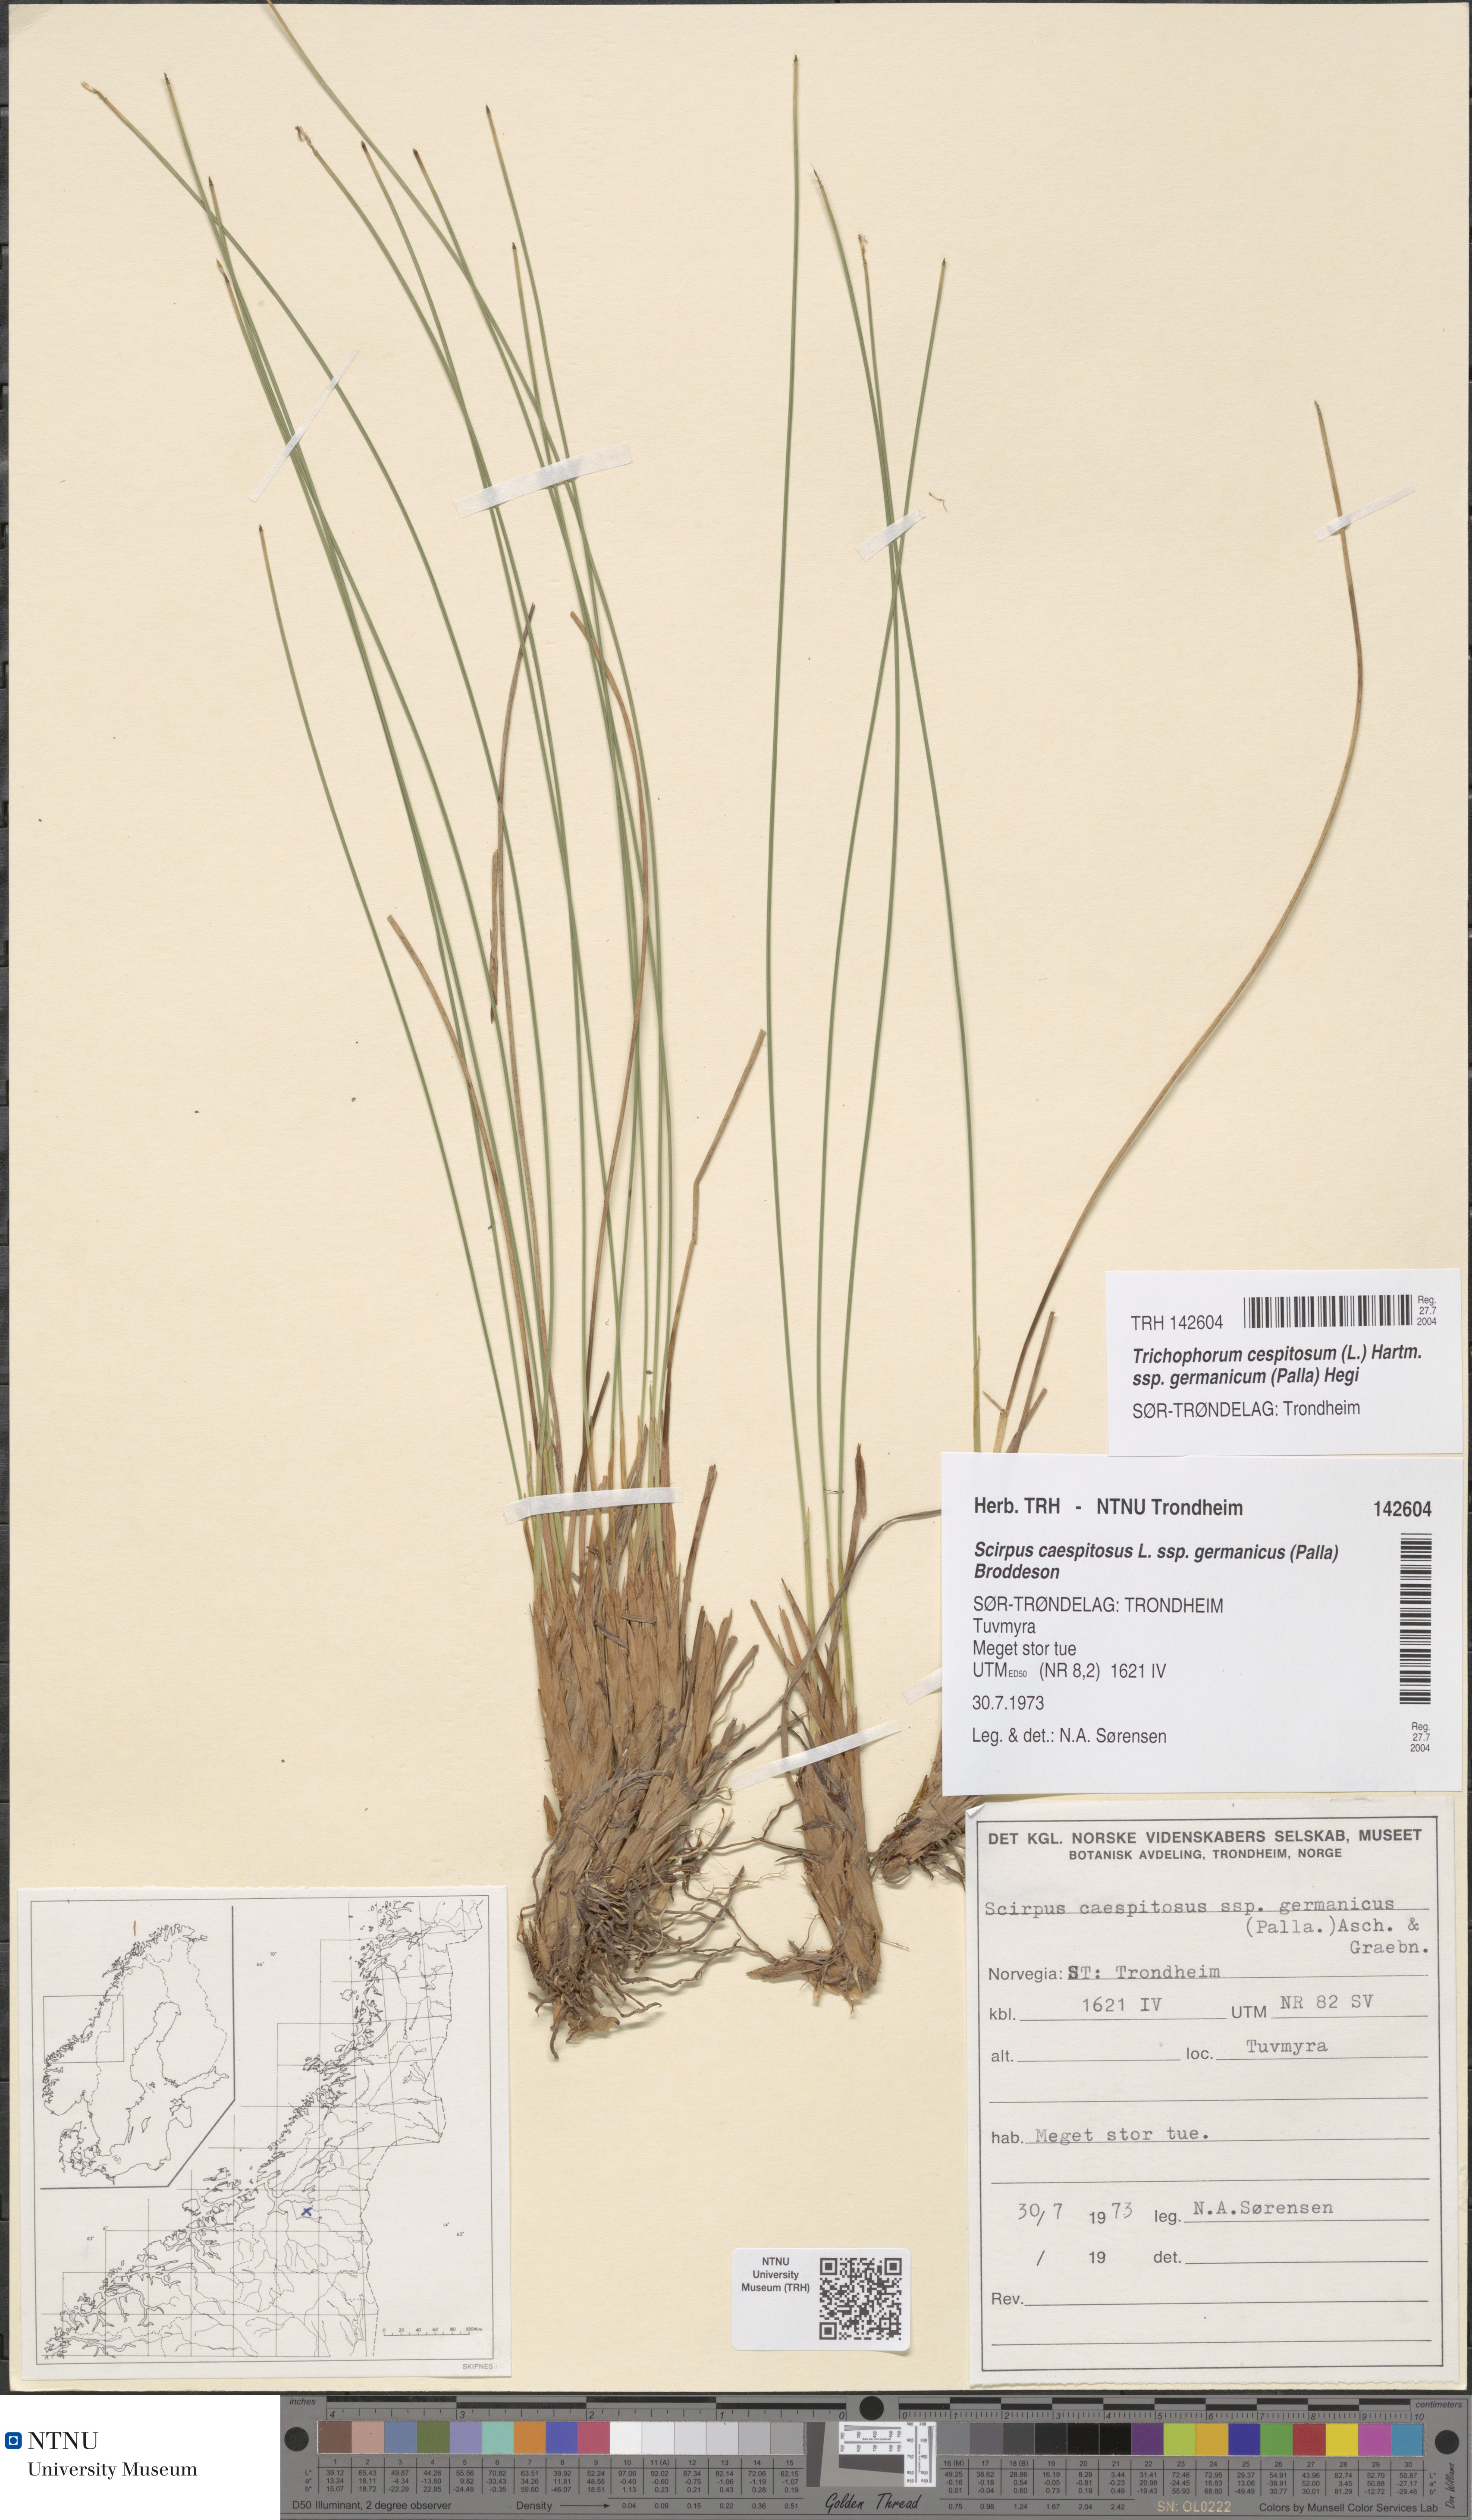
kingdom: Plantae
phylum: Tracheophyta
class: Liliopsida
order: Poales
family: Cyperaceae
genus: Trichophorum
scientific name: Trichophorum cespitosum
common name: Cespitose bulrush
